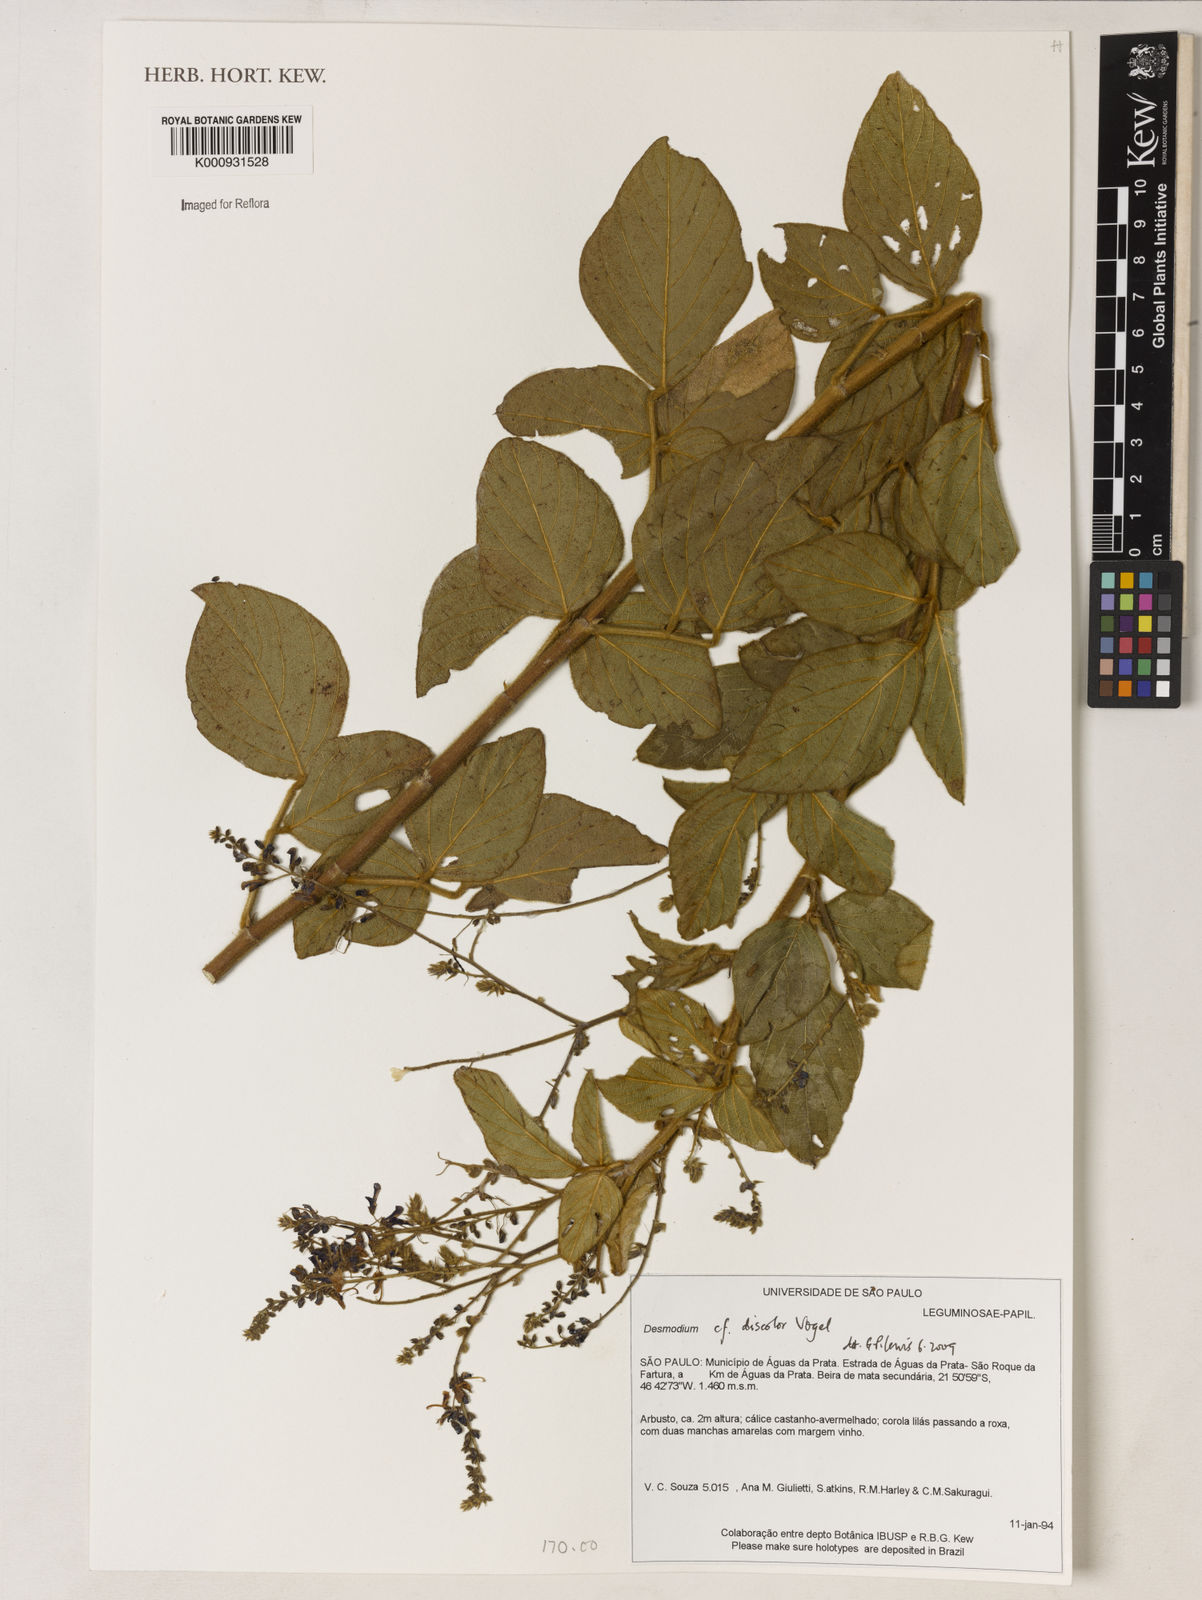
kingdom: Plantae
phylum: Tracheophyta
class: Magnoliopsida
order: Fabales
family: Fabaceae
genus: Desmodium
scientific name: Desmodium subsecundum
